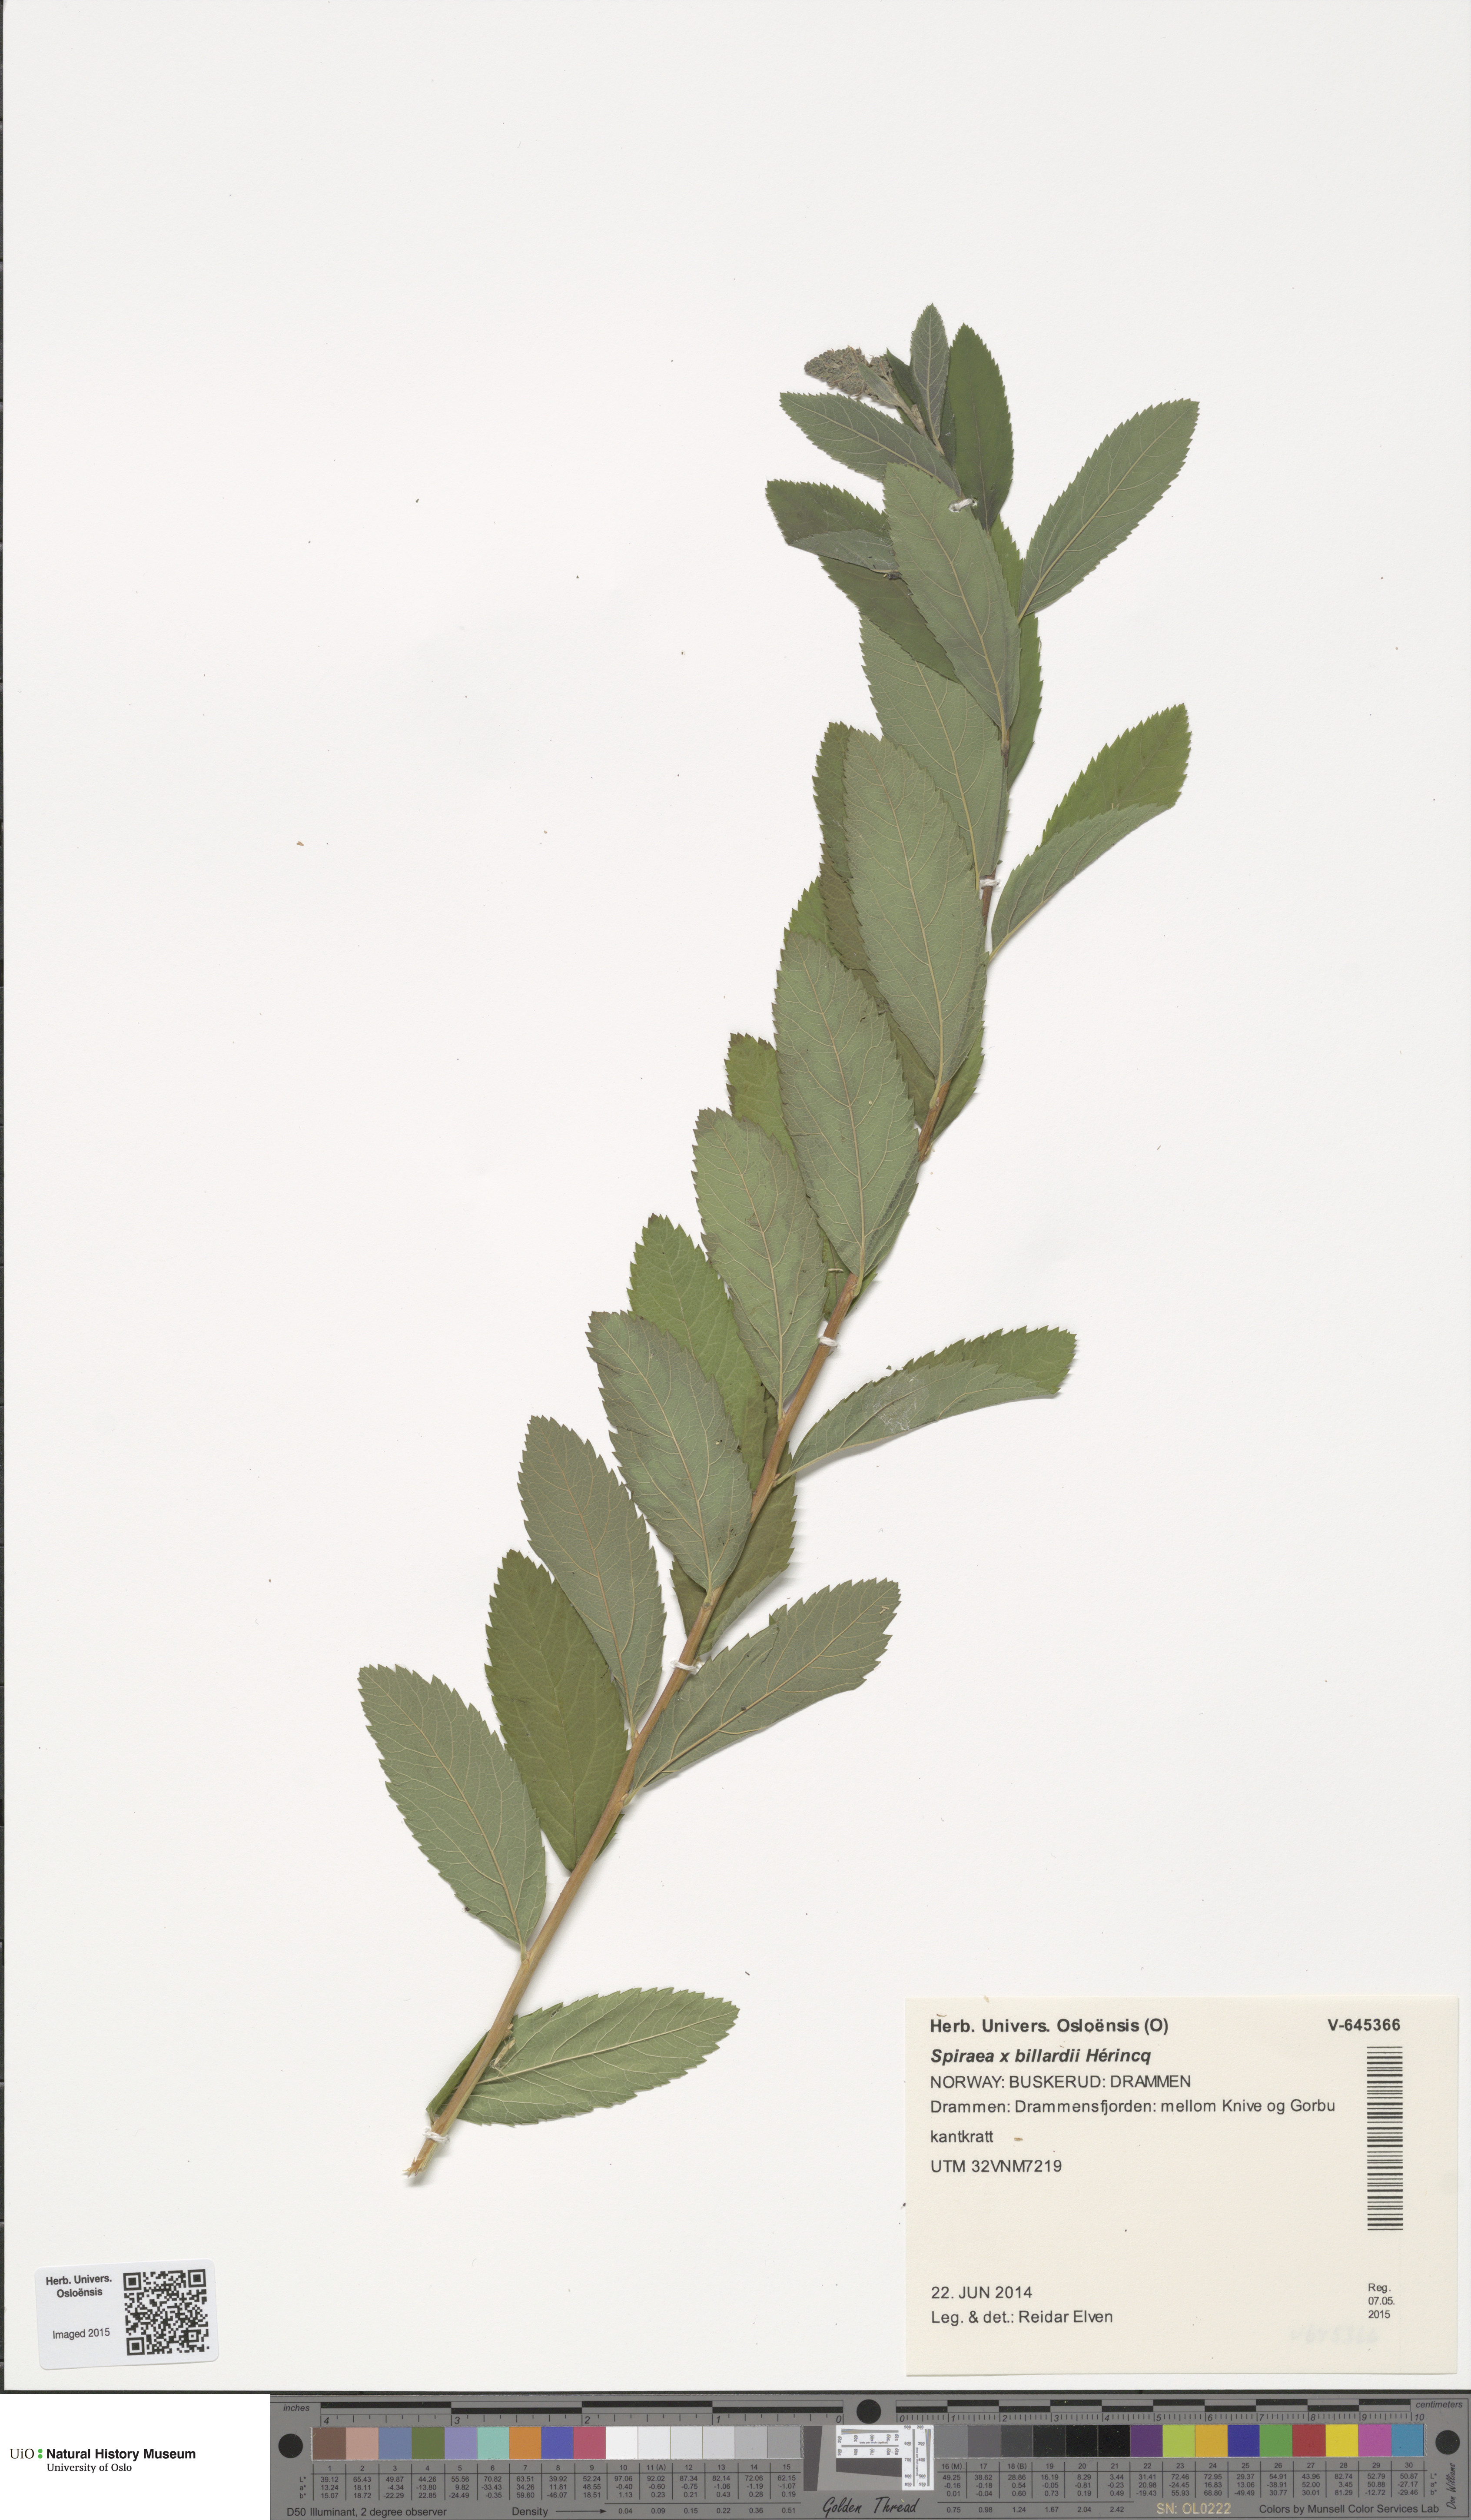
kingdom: Plantae
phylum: Tracheophyta
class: Magnoliopsida
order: Rosales
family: Rosaceae
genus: Spiraea
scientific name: Spiraea billardii
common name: Billard's bridewort
